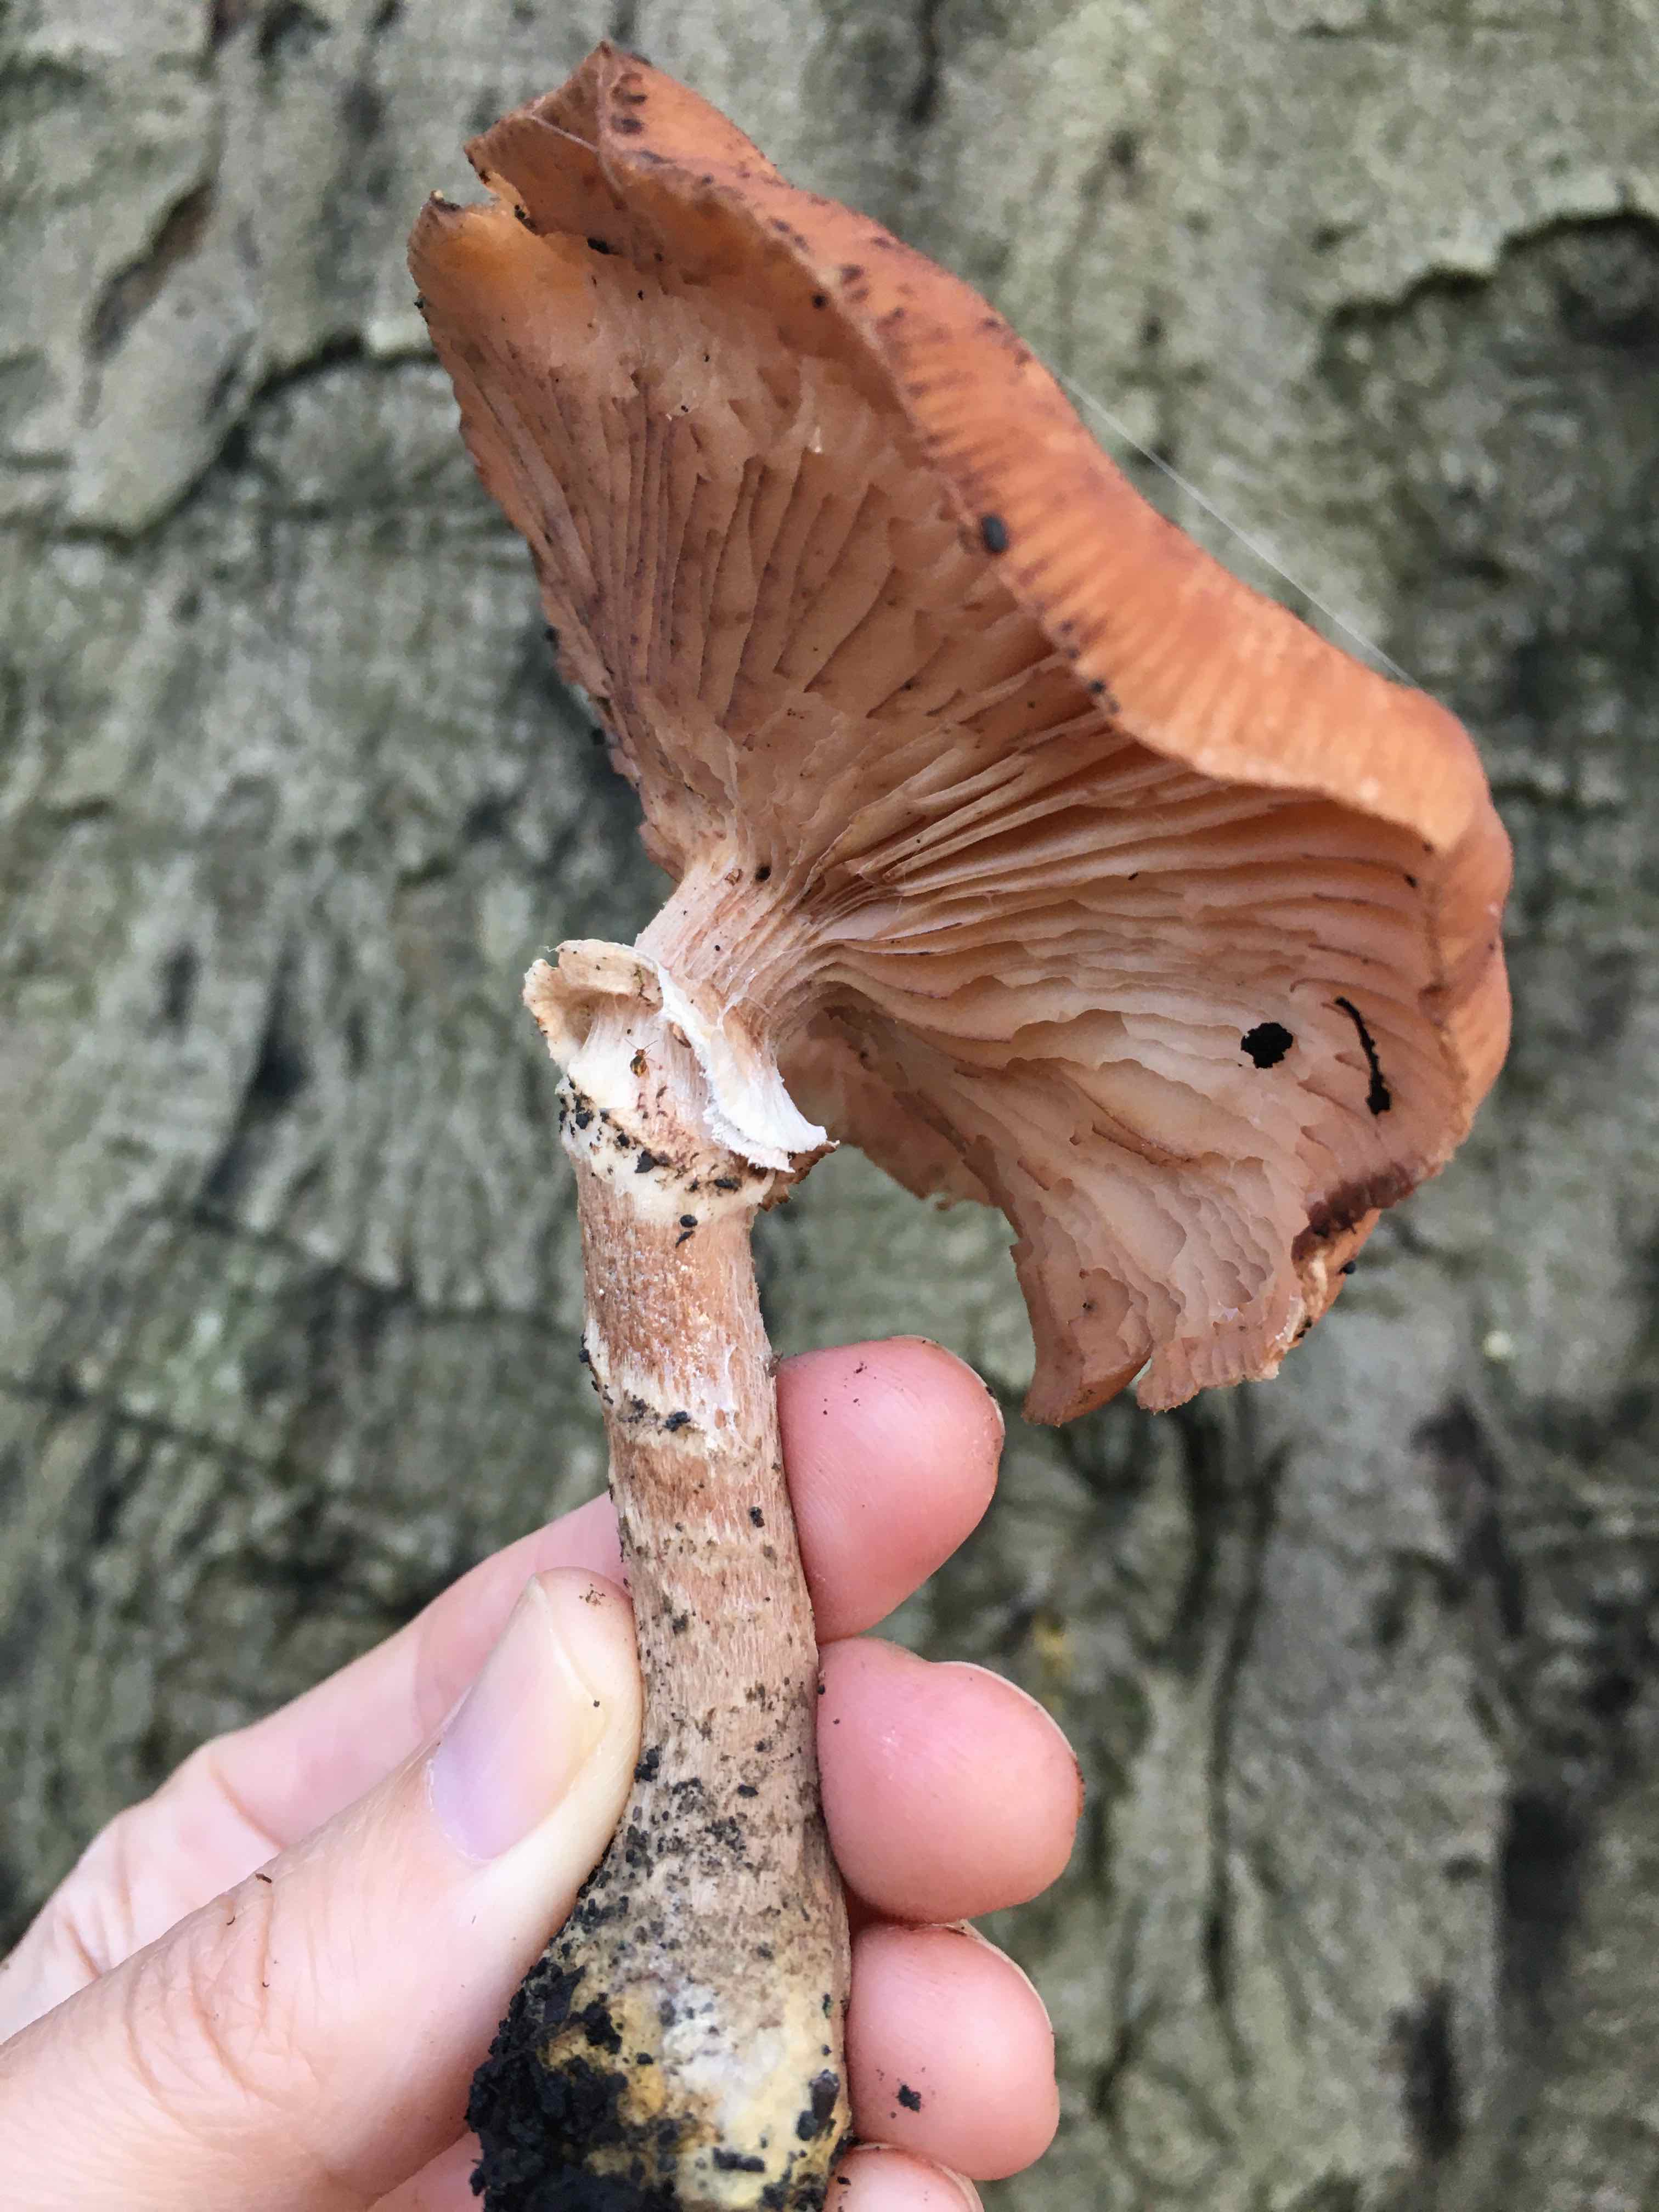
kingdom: Fungi
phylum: Basidiomycota
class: Agaricomycetes
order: Agaricales
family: Physalacriaceae
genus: Armillaria
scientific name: Armillaria ostoyae
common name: mørk honningsvamp
